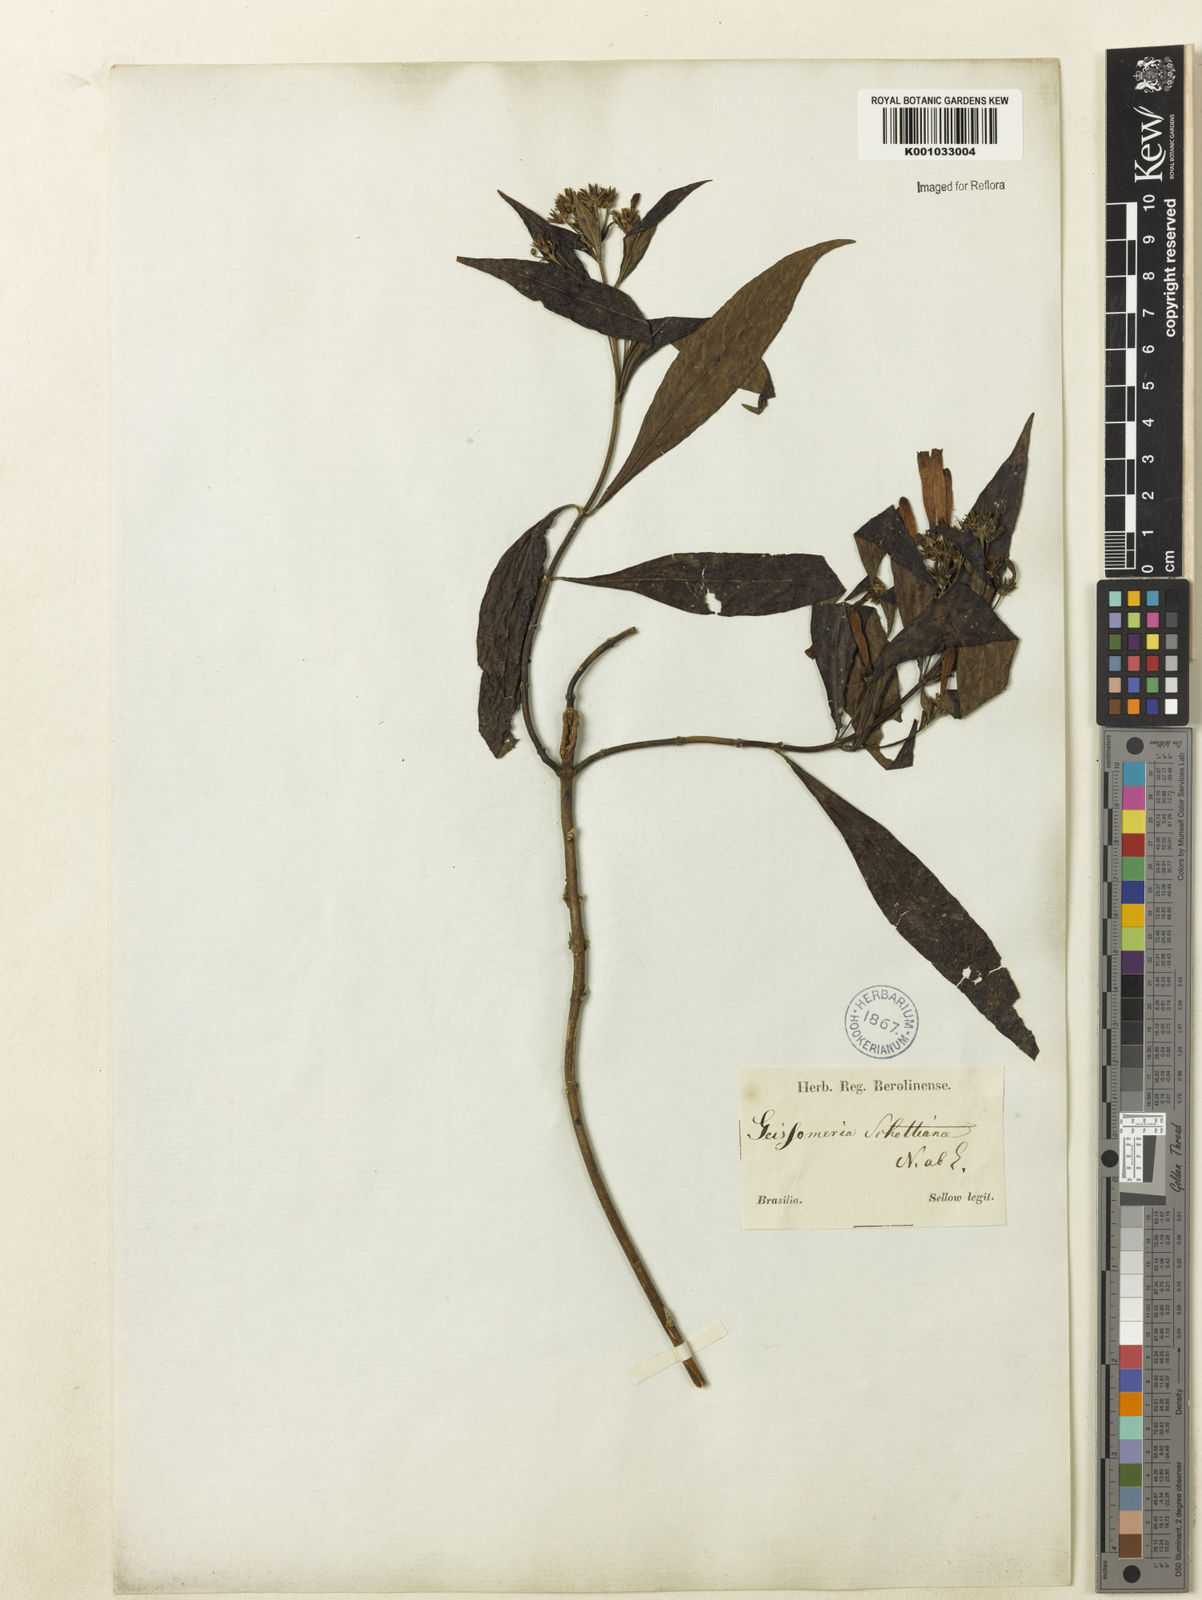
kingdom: Plantae
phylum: Tracheophyta
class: Magnoliopsida
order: Lamiales
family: Acanthaceae
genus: Aphelandra
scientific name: Aphelandra schottiana
